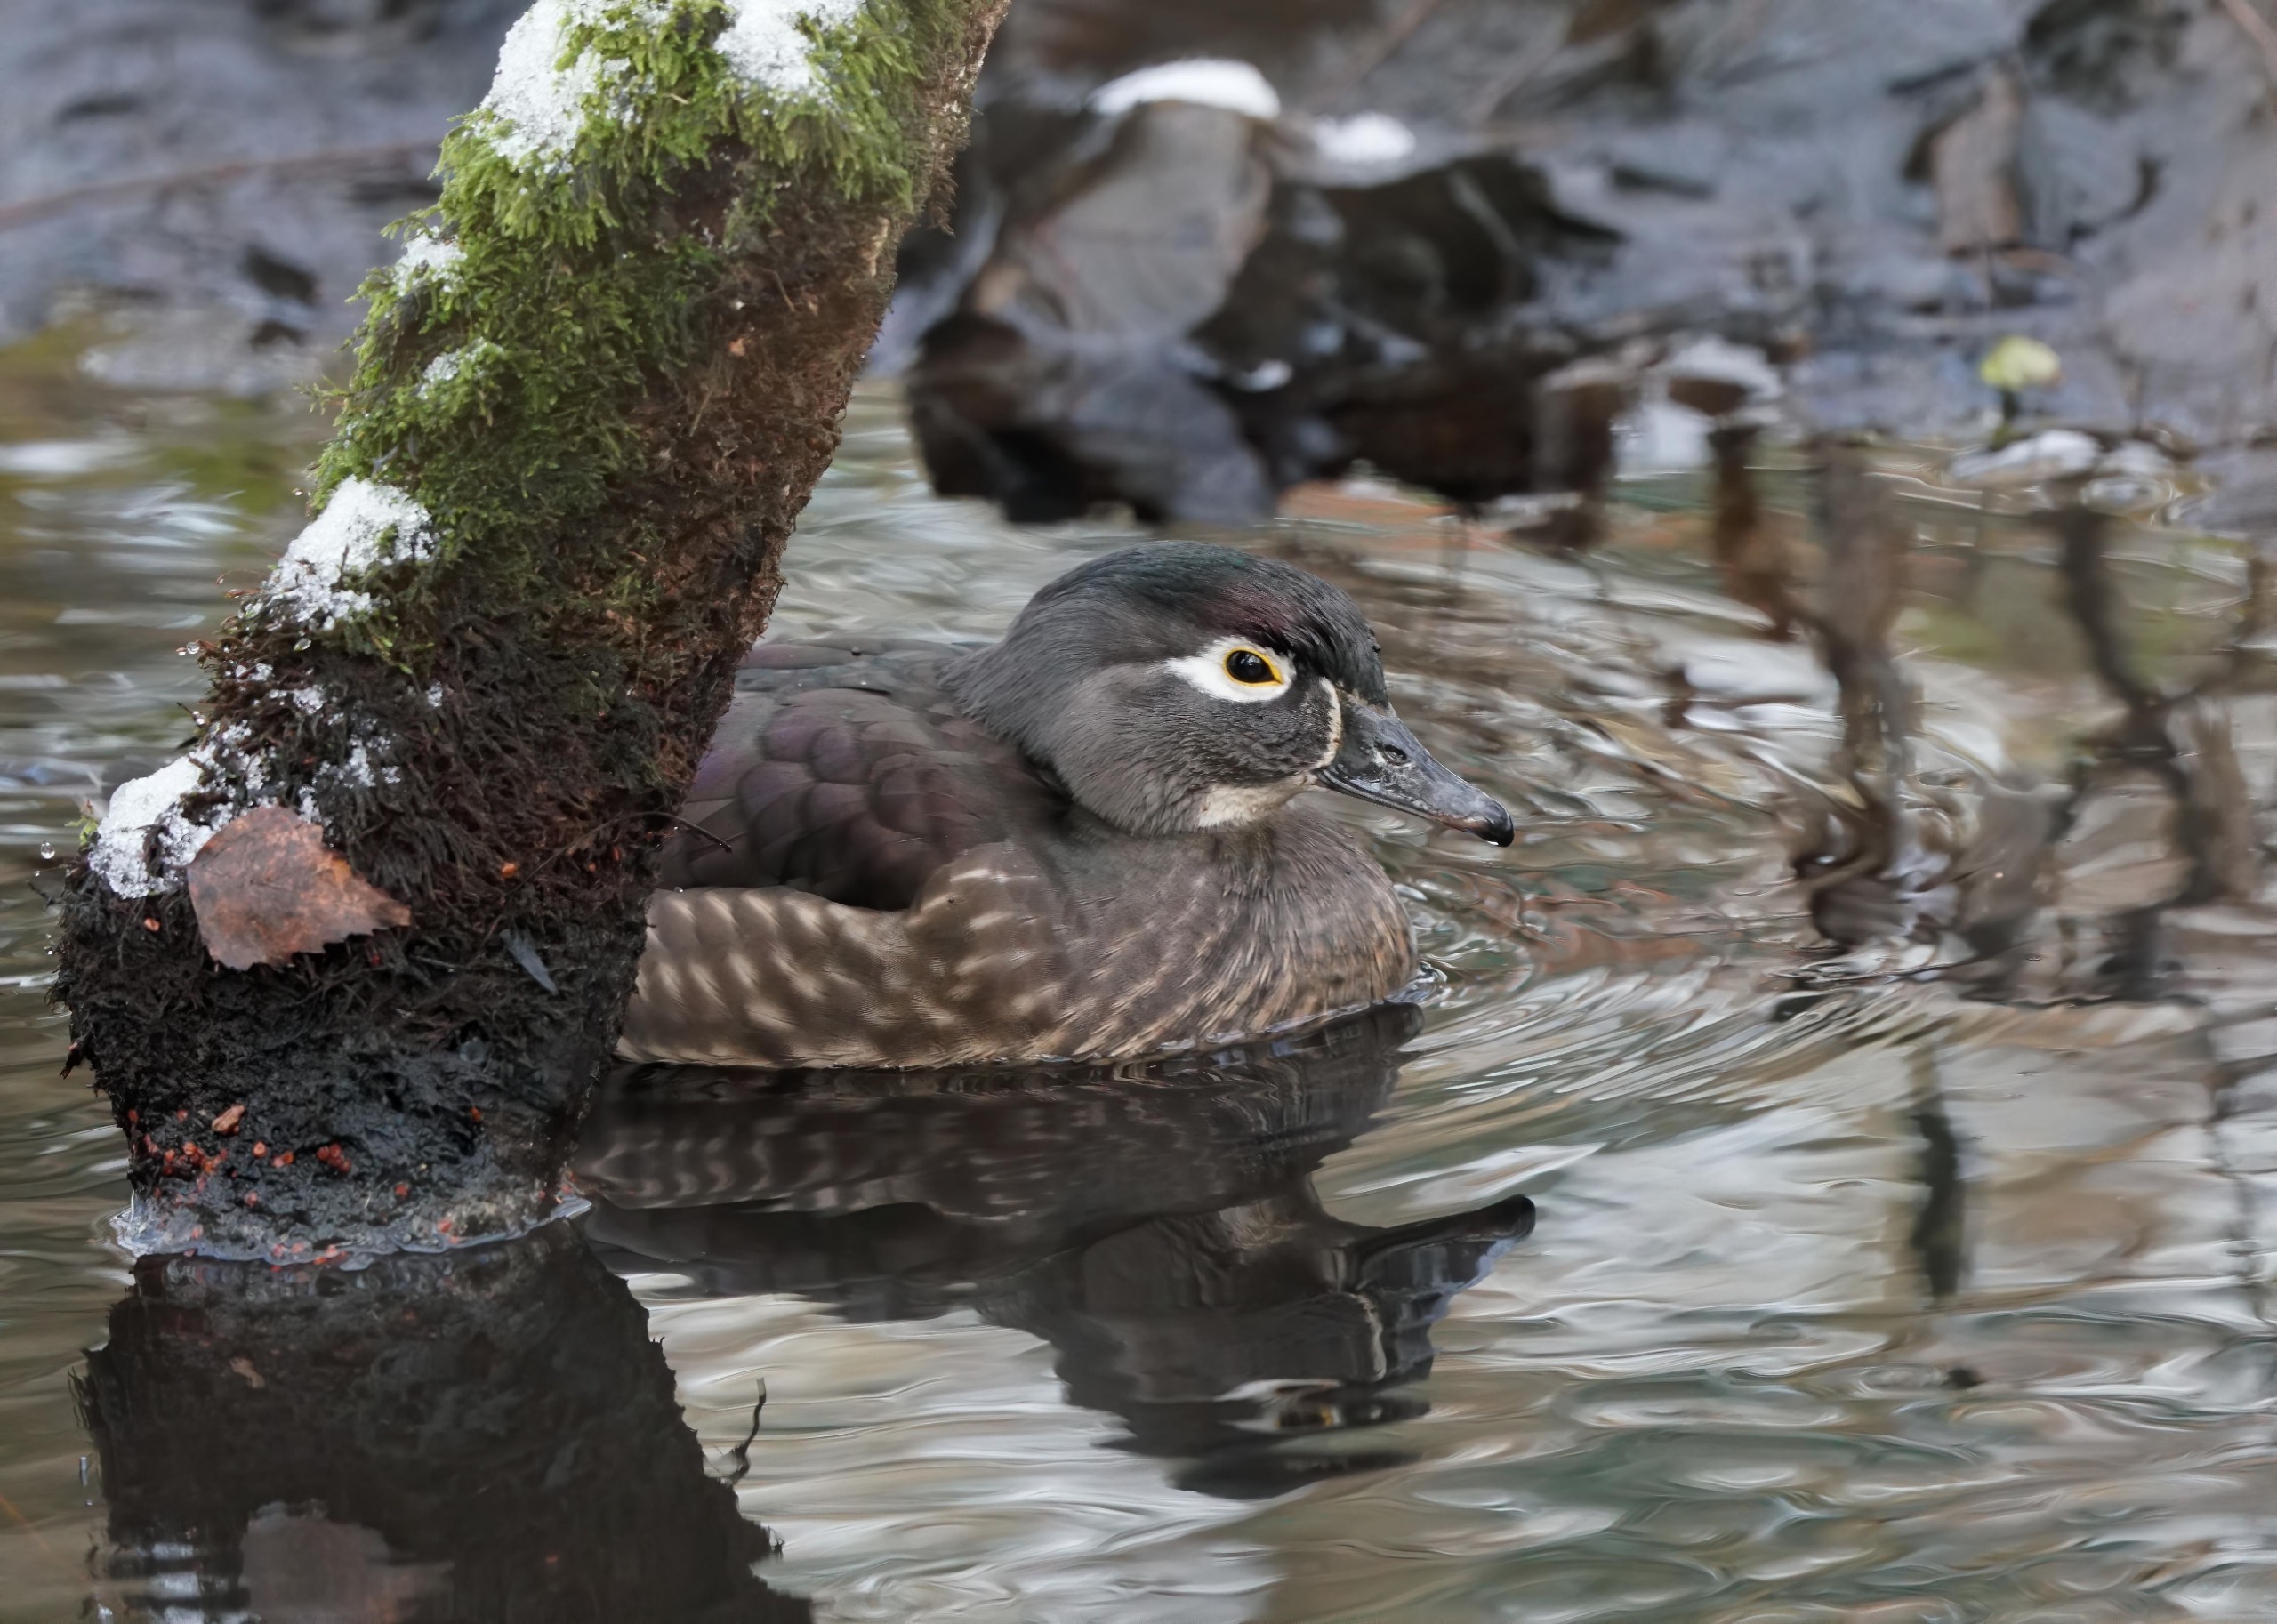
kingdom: Animalia
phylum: Chordata
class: Aves
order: Anseriformes
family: Anatidae
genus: Aix
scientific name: Aix sponsa
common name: Brudeand
